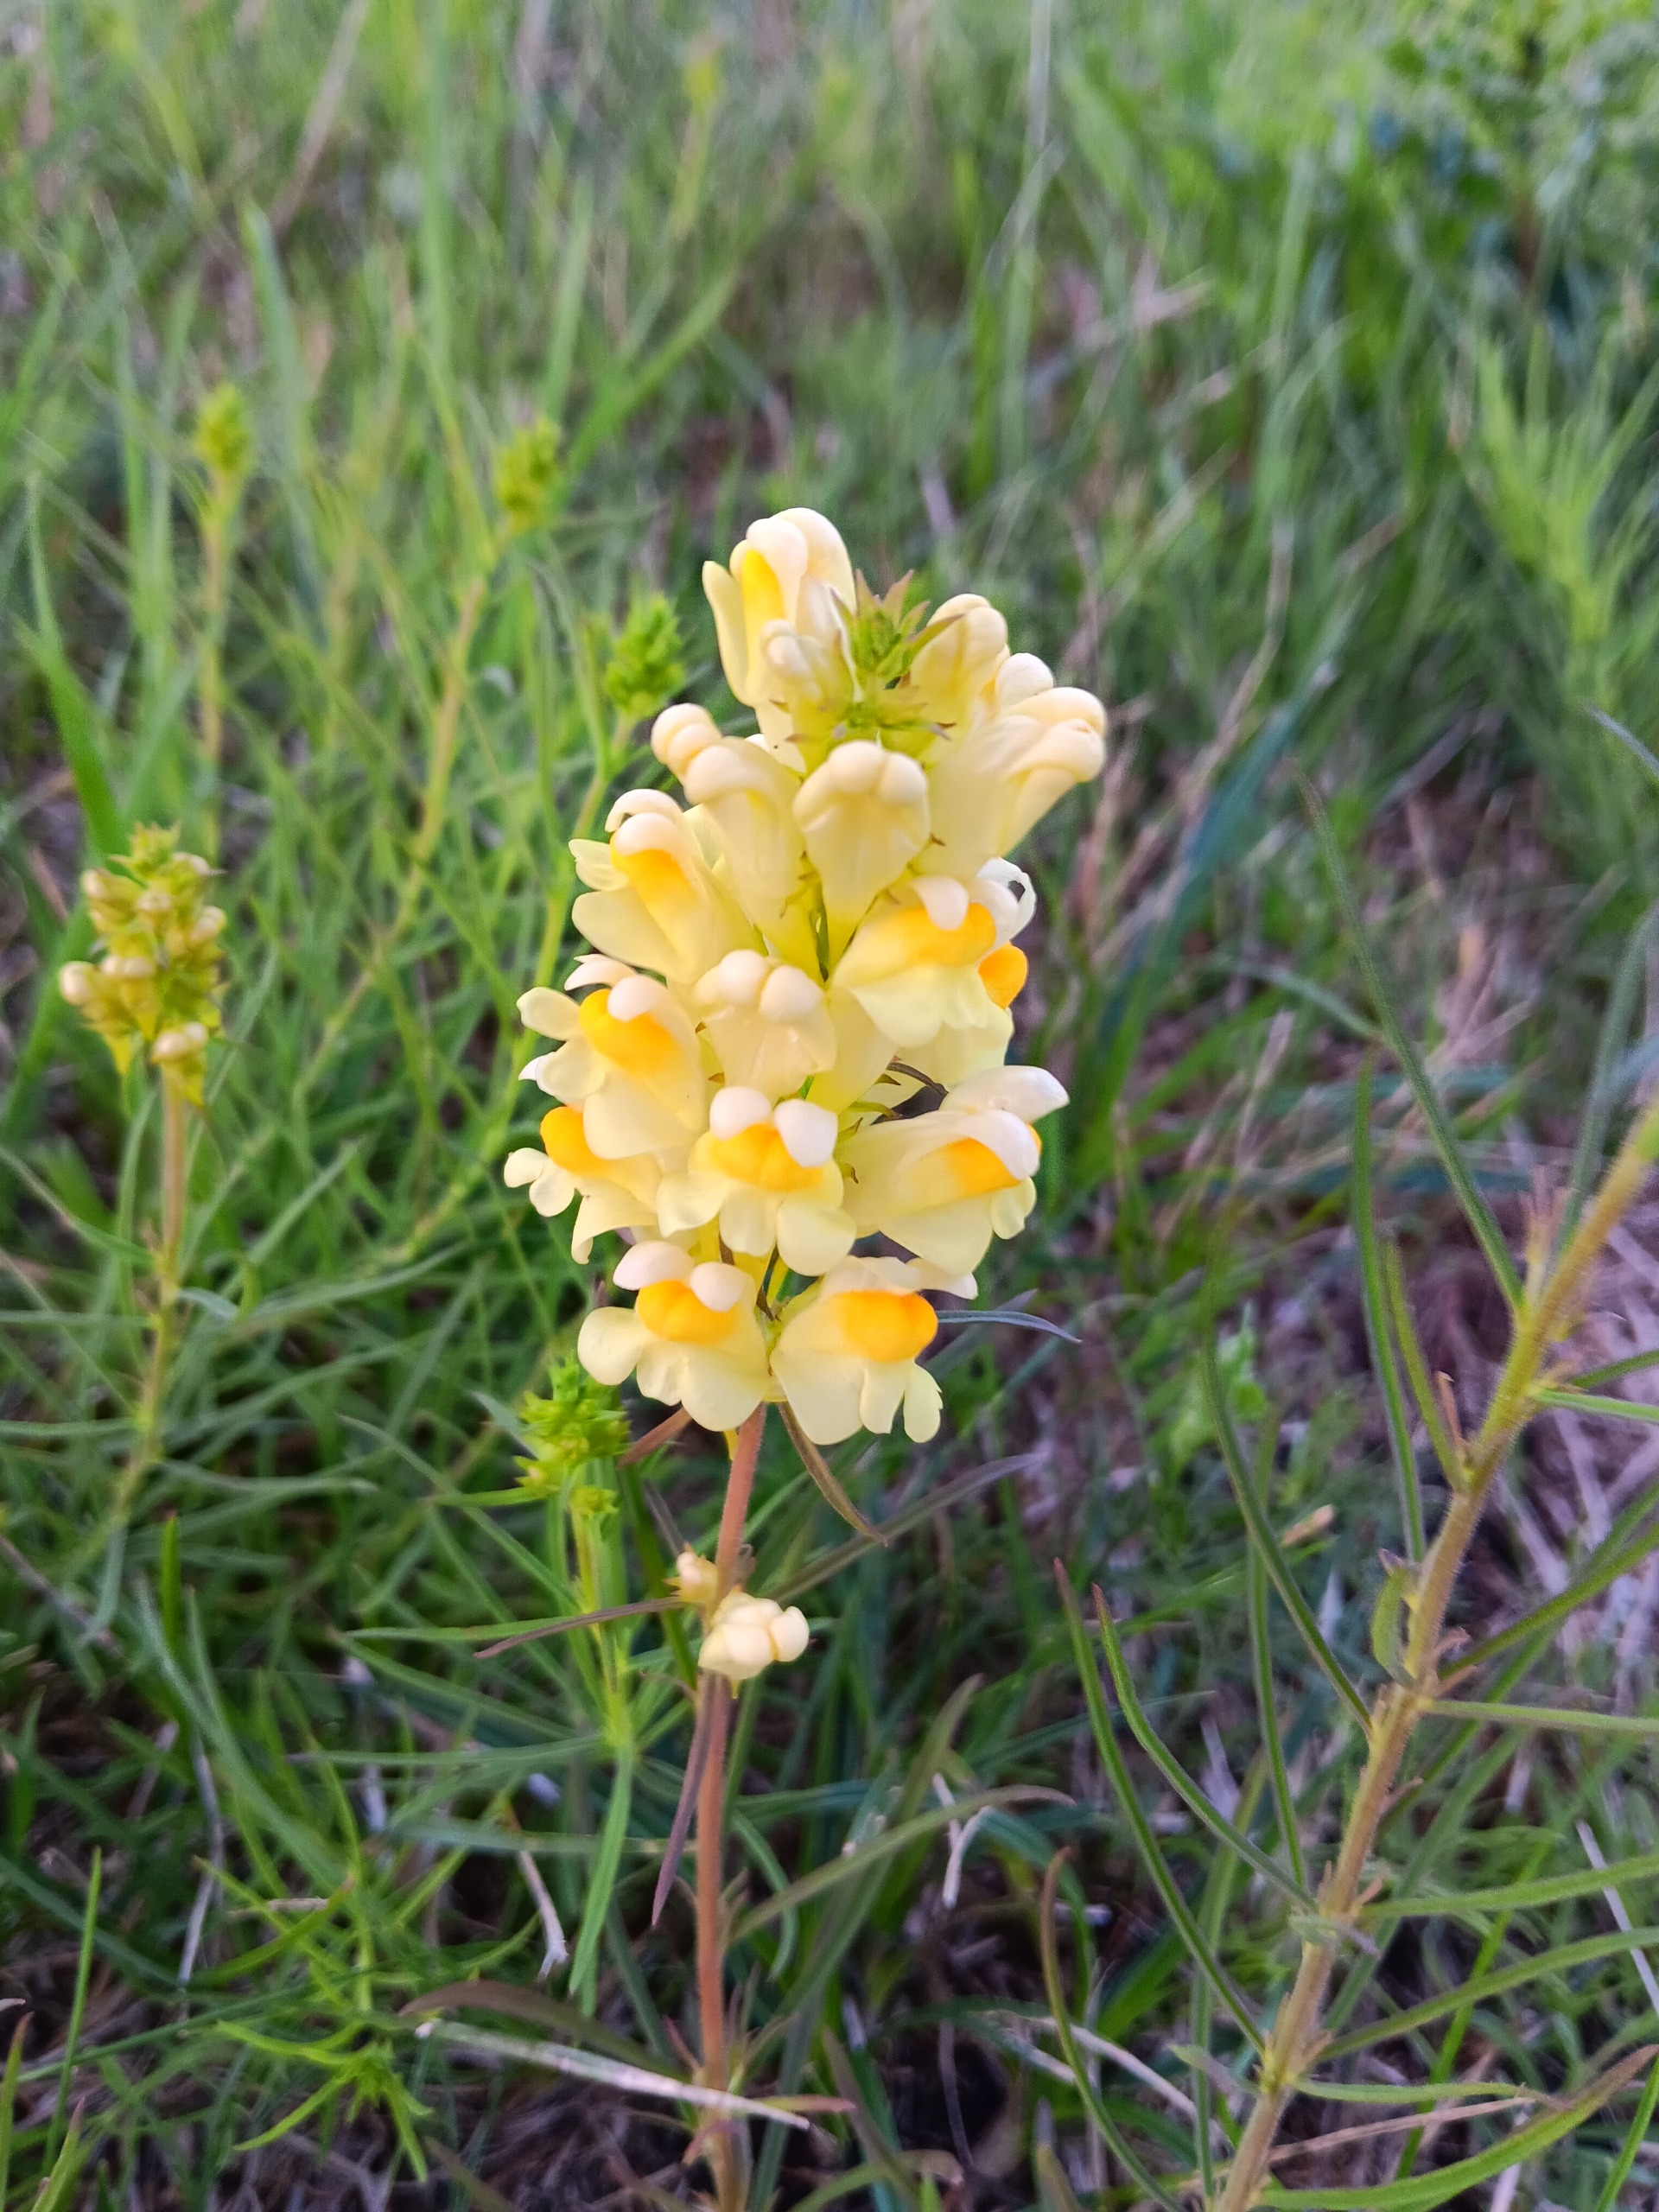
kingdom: Plantae
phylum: Tracheophyta
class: Magnoliopsida
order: Lamiales
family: Plantaginaceae
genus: Linaria
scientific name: Linaria vulgaris
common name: Almindelig torskemund
